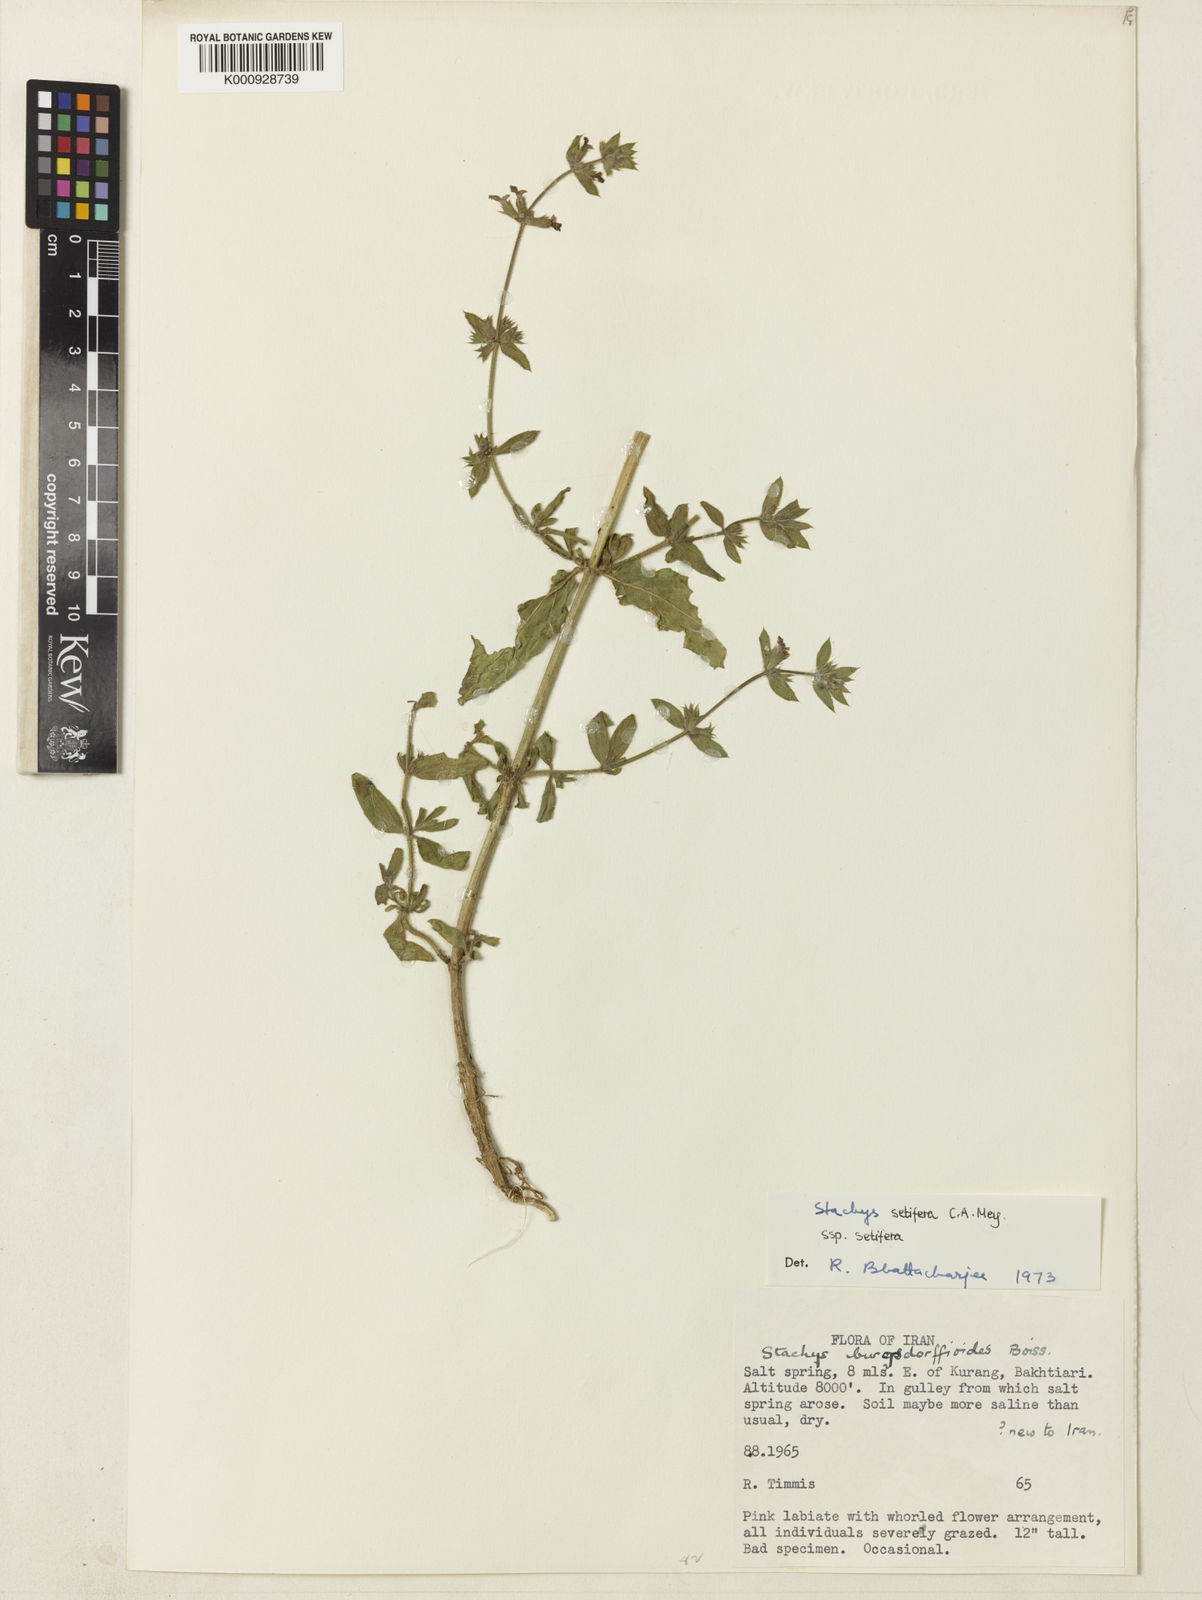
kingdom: Plantae
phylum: Tracheophyta
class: Magnoliopsida
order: Lamiales
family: Lamiaceae
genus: Stachys
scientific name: Stachys setifera
